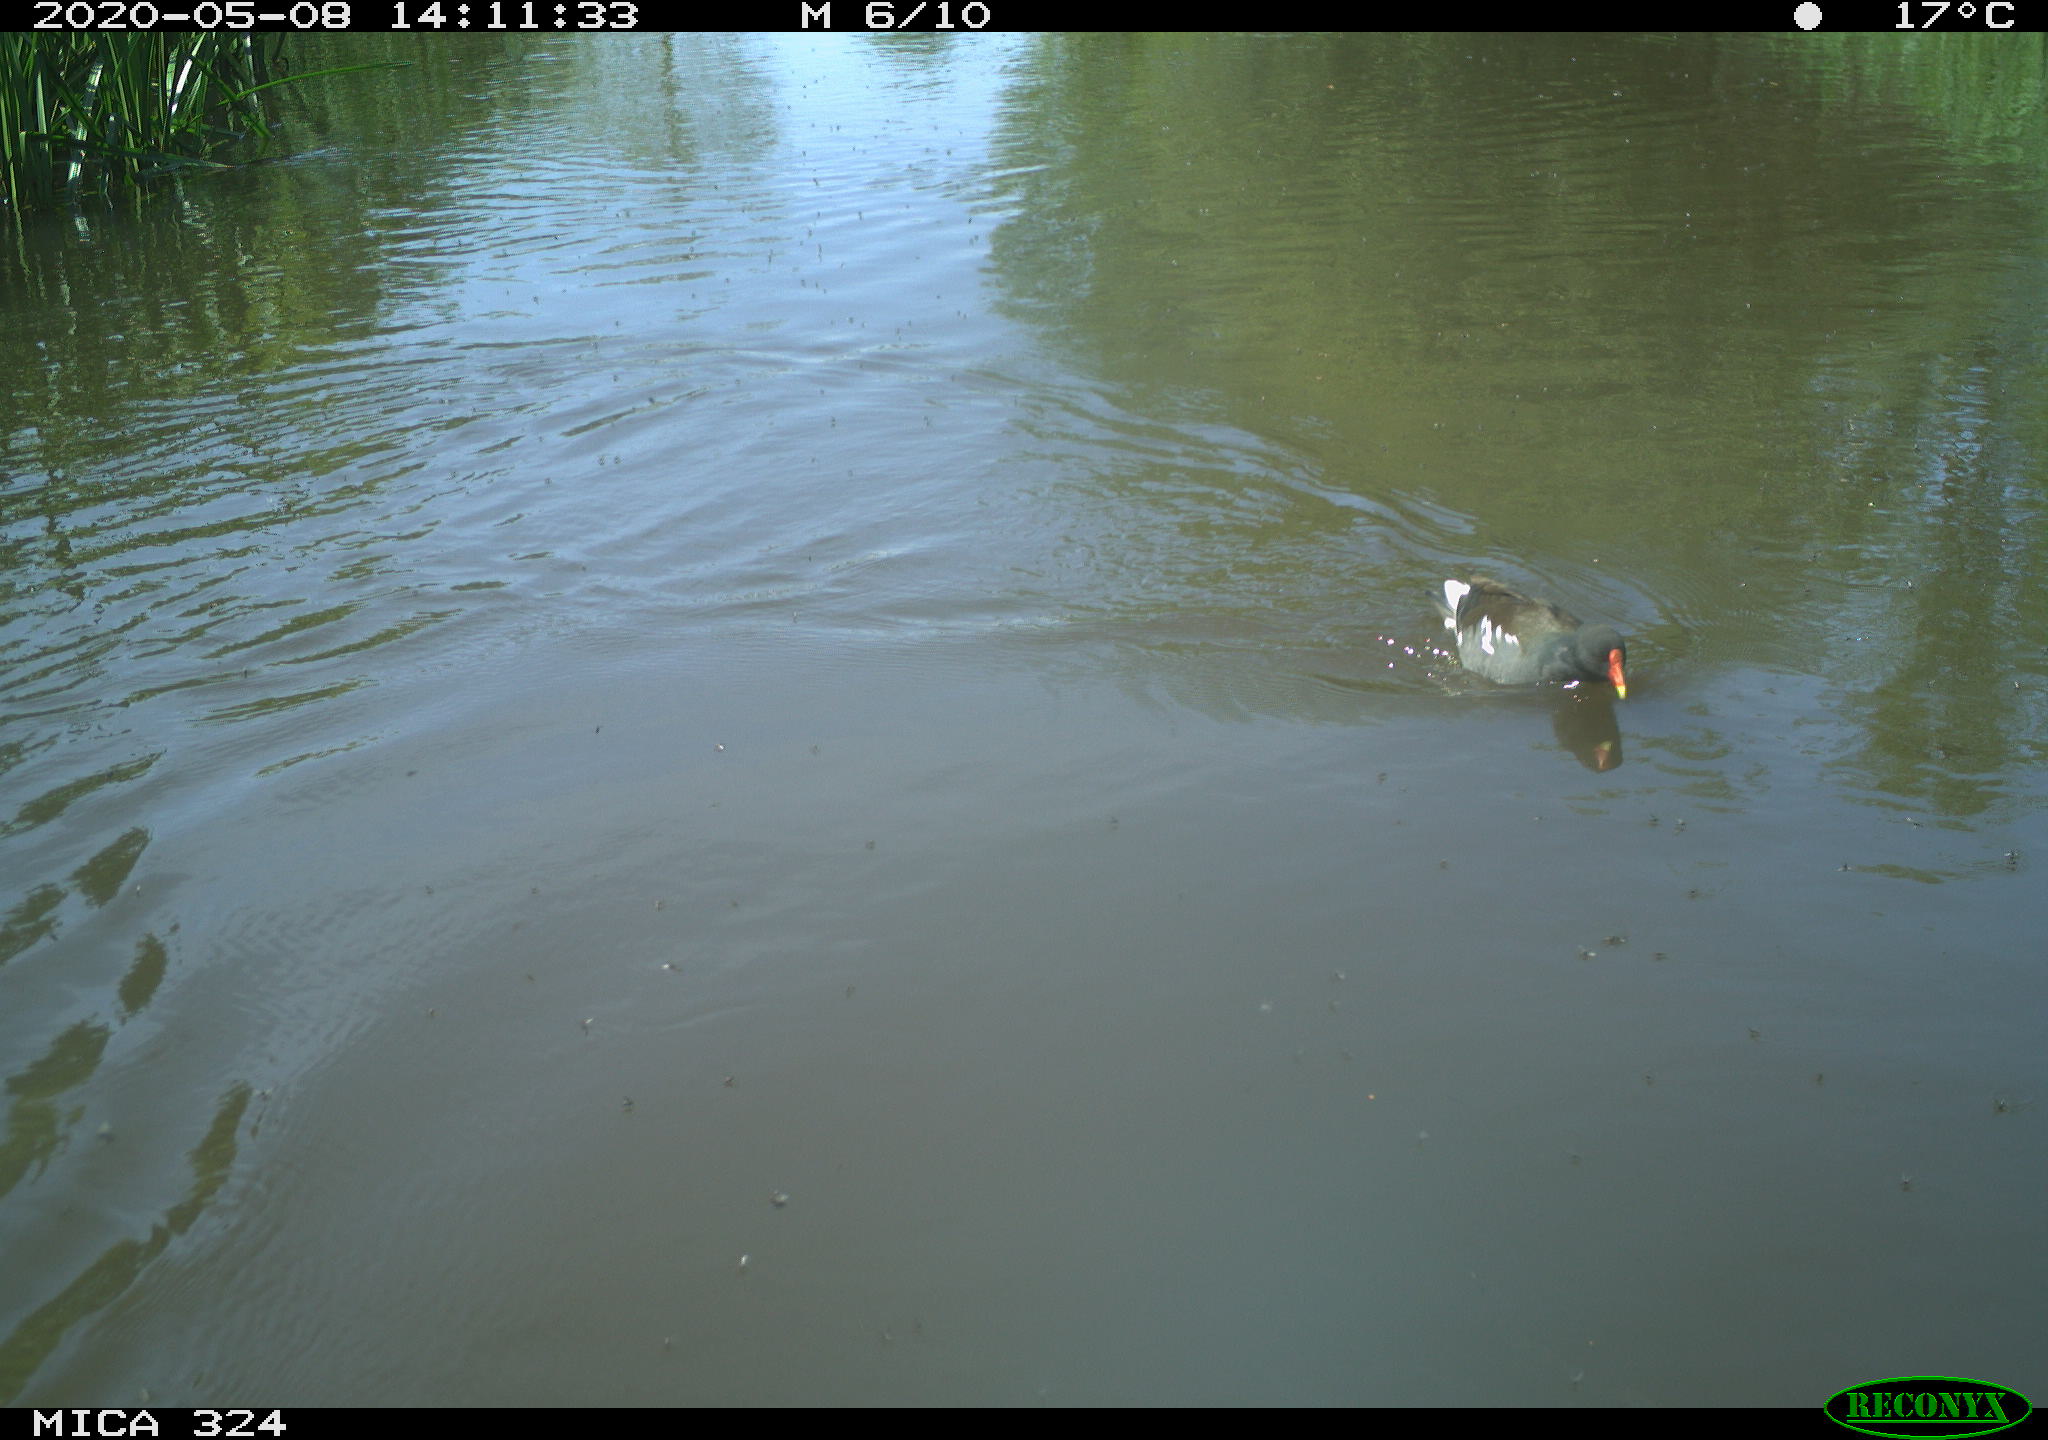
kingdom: Animalia
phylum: Chordata
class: Aves
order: Gruiformes
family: Rallidae
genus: Gallinula
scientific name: Gallinula chloropus
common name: Common moorhen
